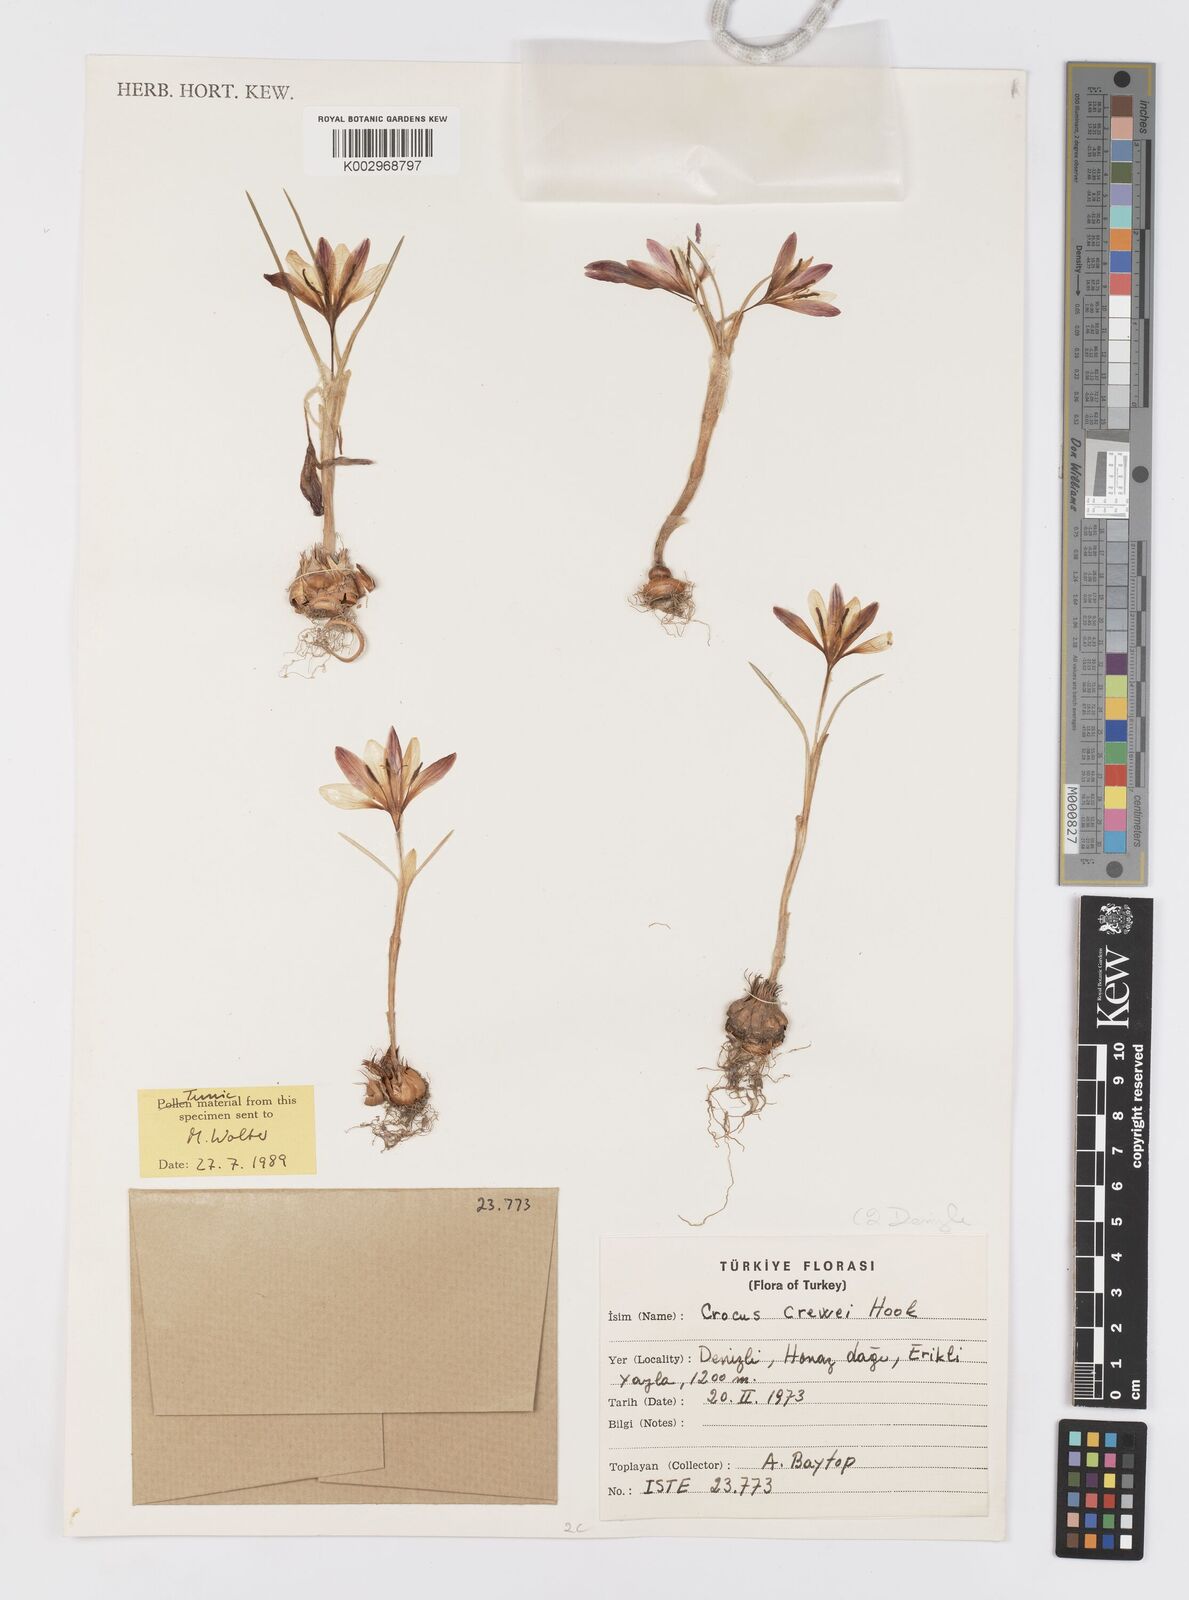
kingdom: Plantae
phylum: Tracheophyta
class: Liliopsida
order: Asparagales
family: Iridaceae
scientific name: Iridaceae
